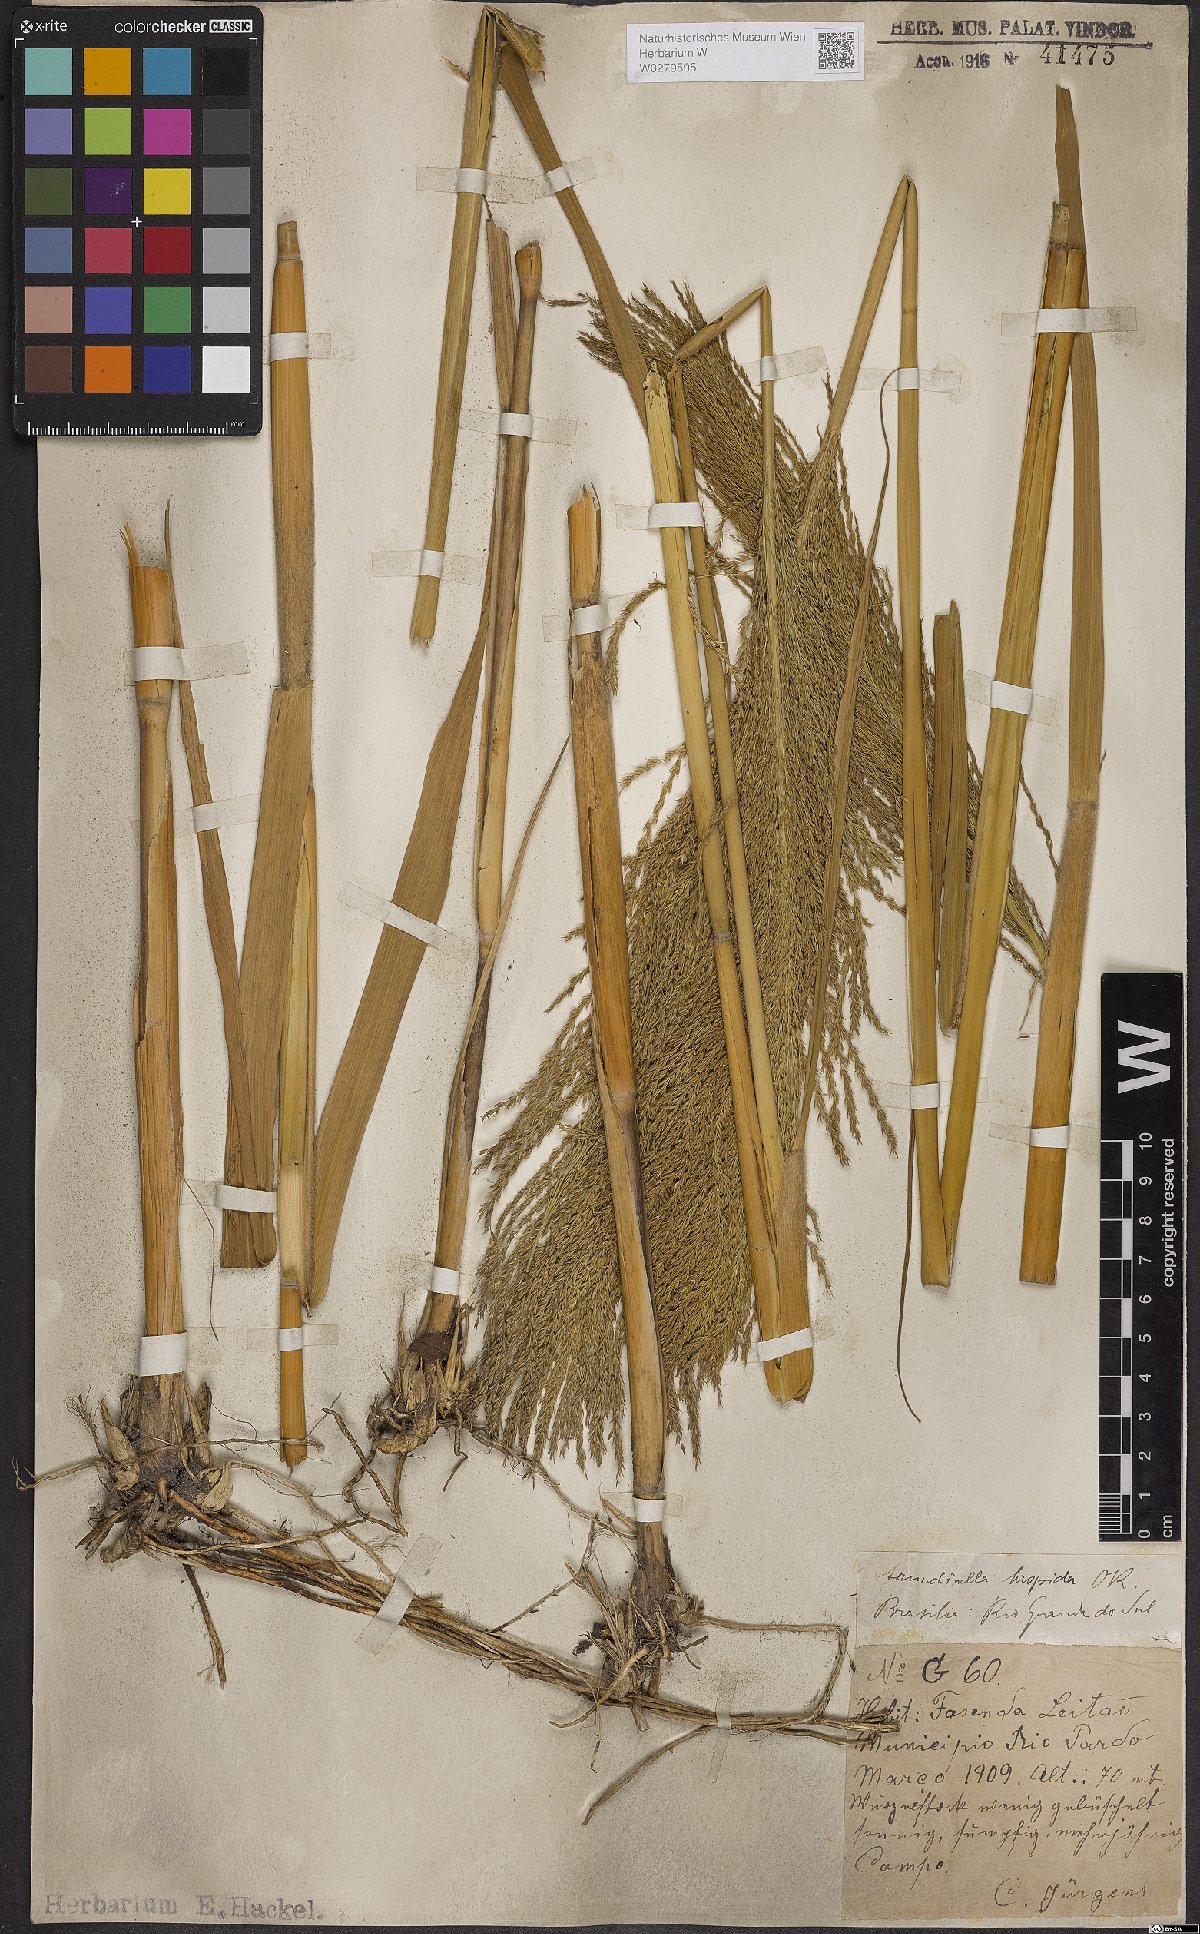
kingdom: Plantae
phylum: Tracheophyta
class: Liliopsida
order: Poales
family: Poaceae
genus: Arundinella
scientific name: Arundinella hispida
